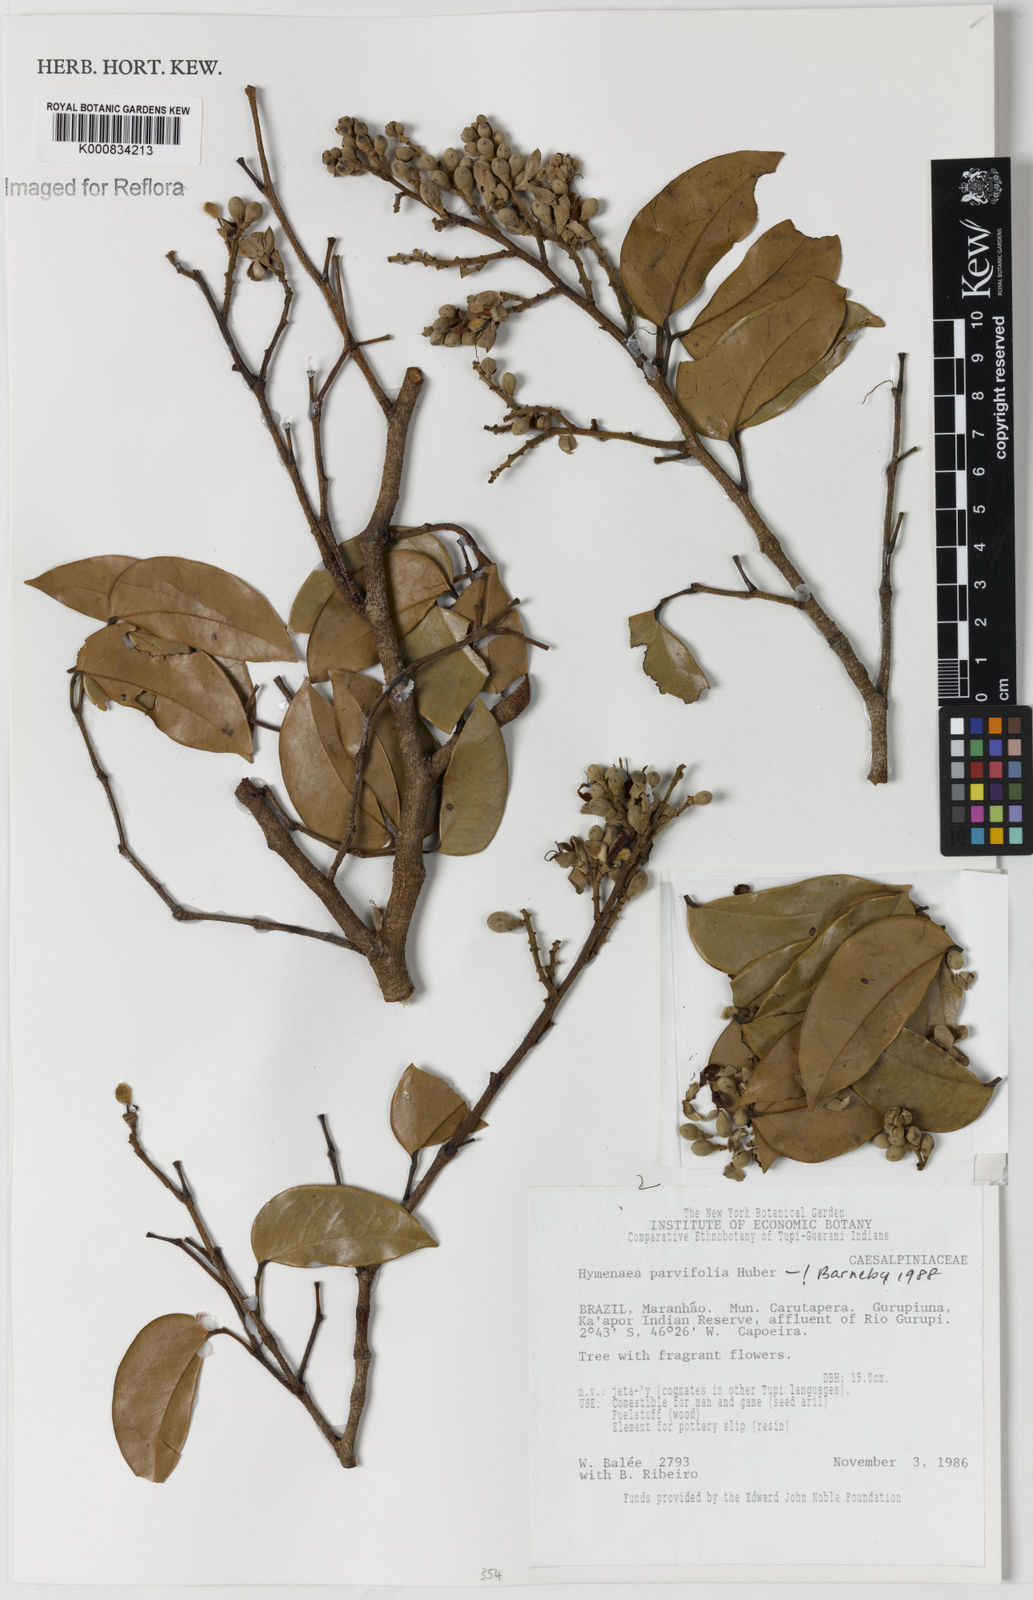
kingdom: Plantae
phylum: Tracheophyta
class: Magnoliopsida
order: Fabales
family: Fabaceae
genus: Hymenaea
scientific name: Hymenaea parvifolia
